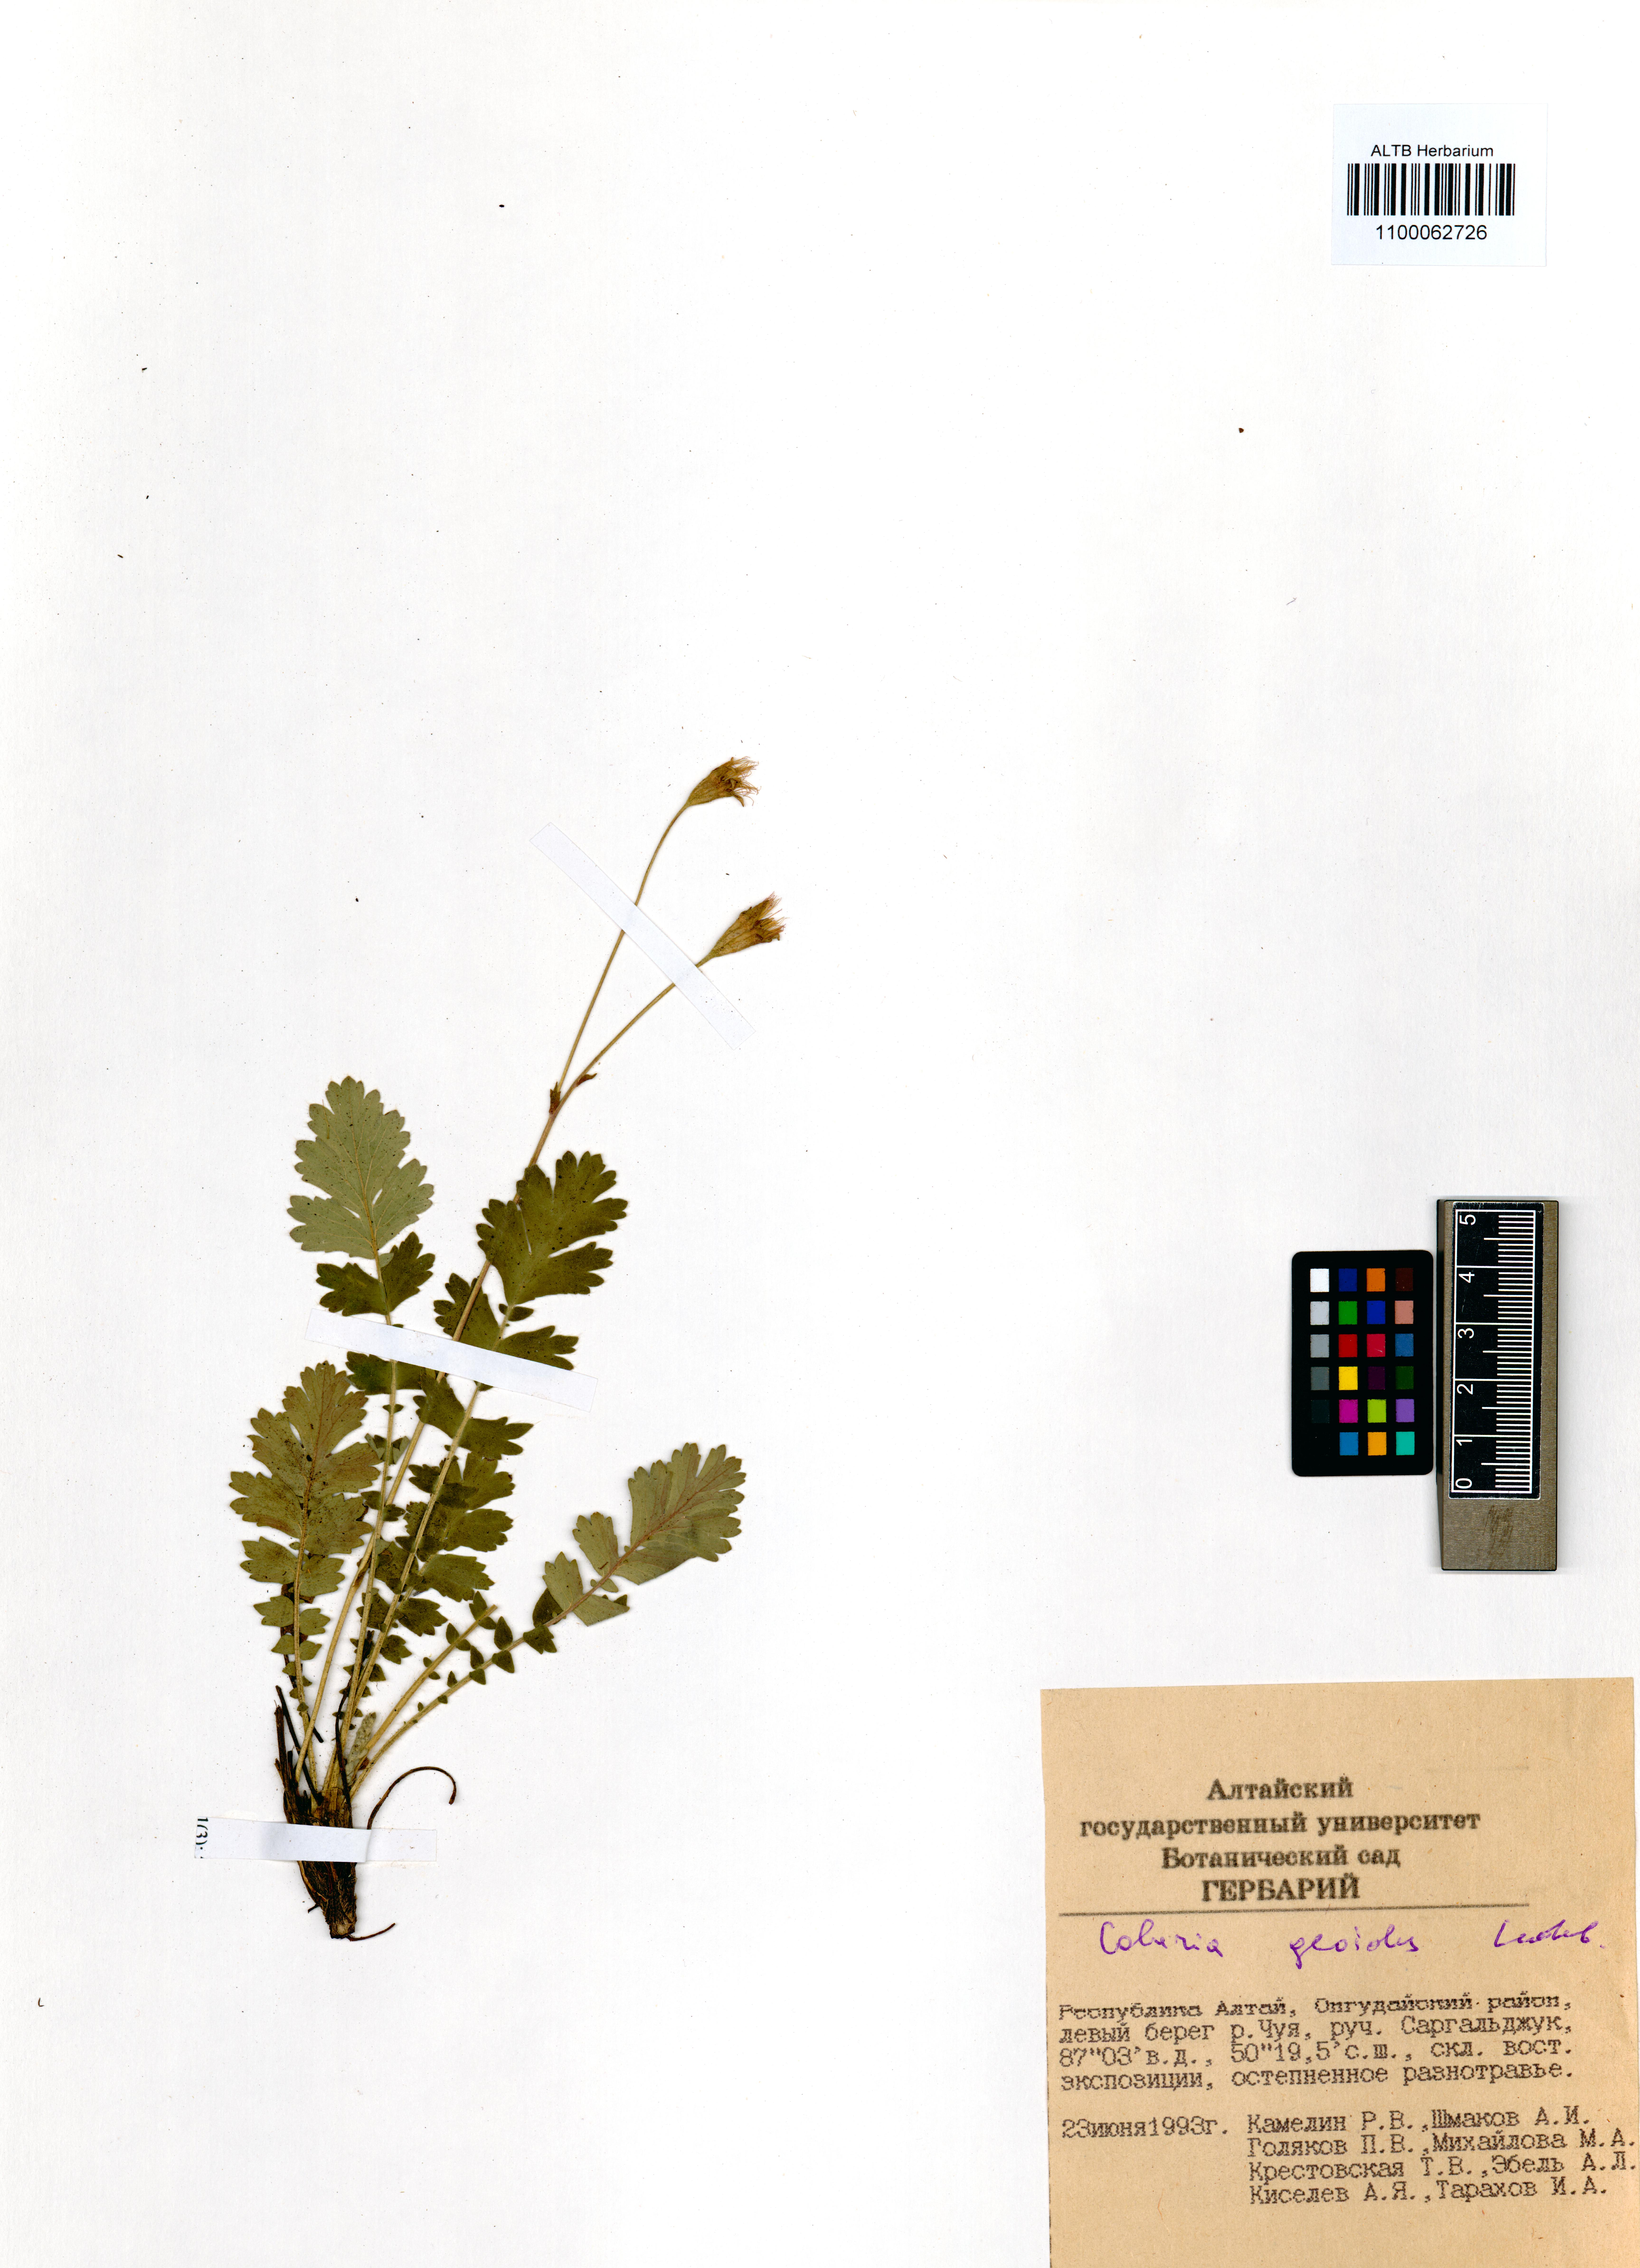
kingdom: Plantae
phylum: Tracheophyta
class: Magnoliopsida
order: Rosales
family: Rosaceae
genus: Geum
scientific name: Geum geoides
